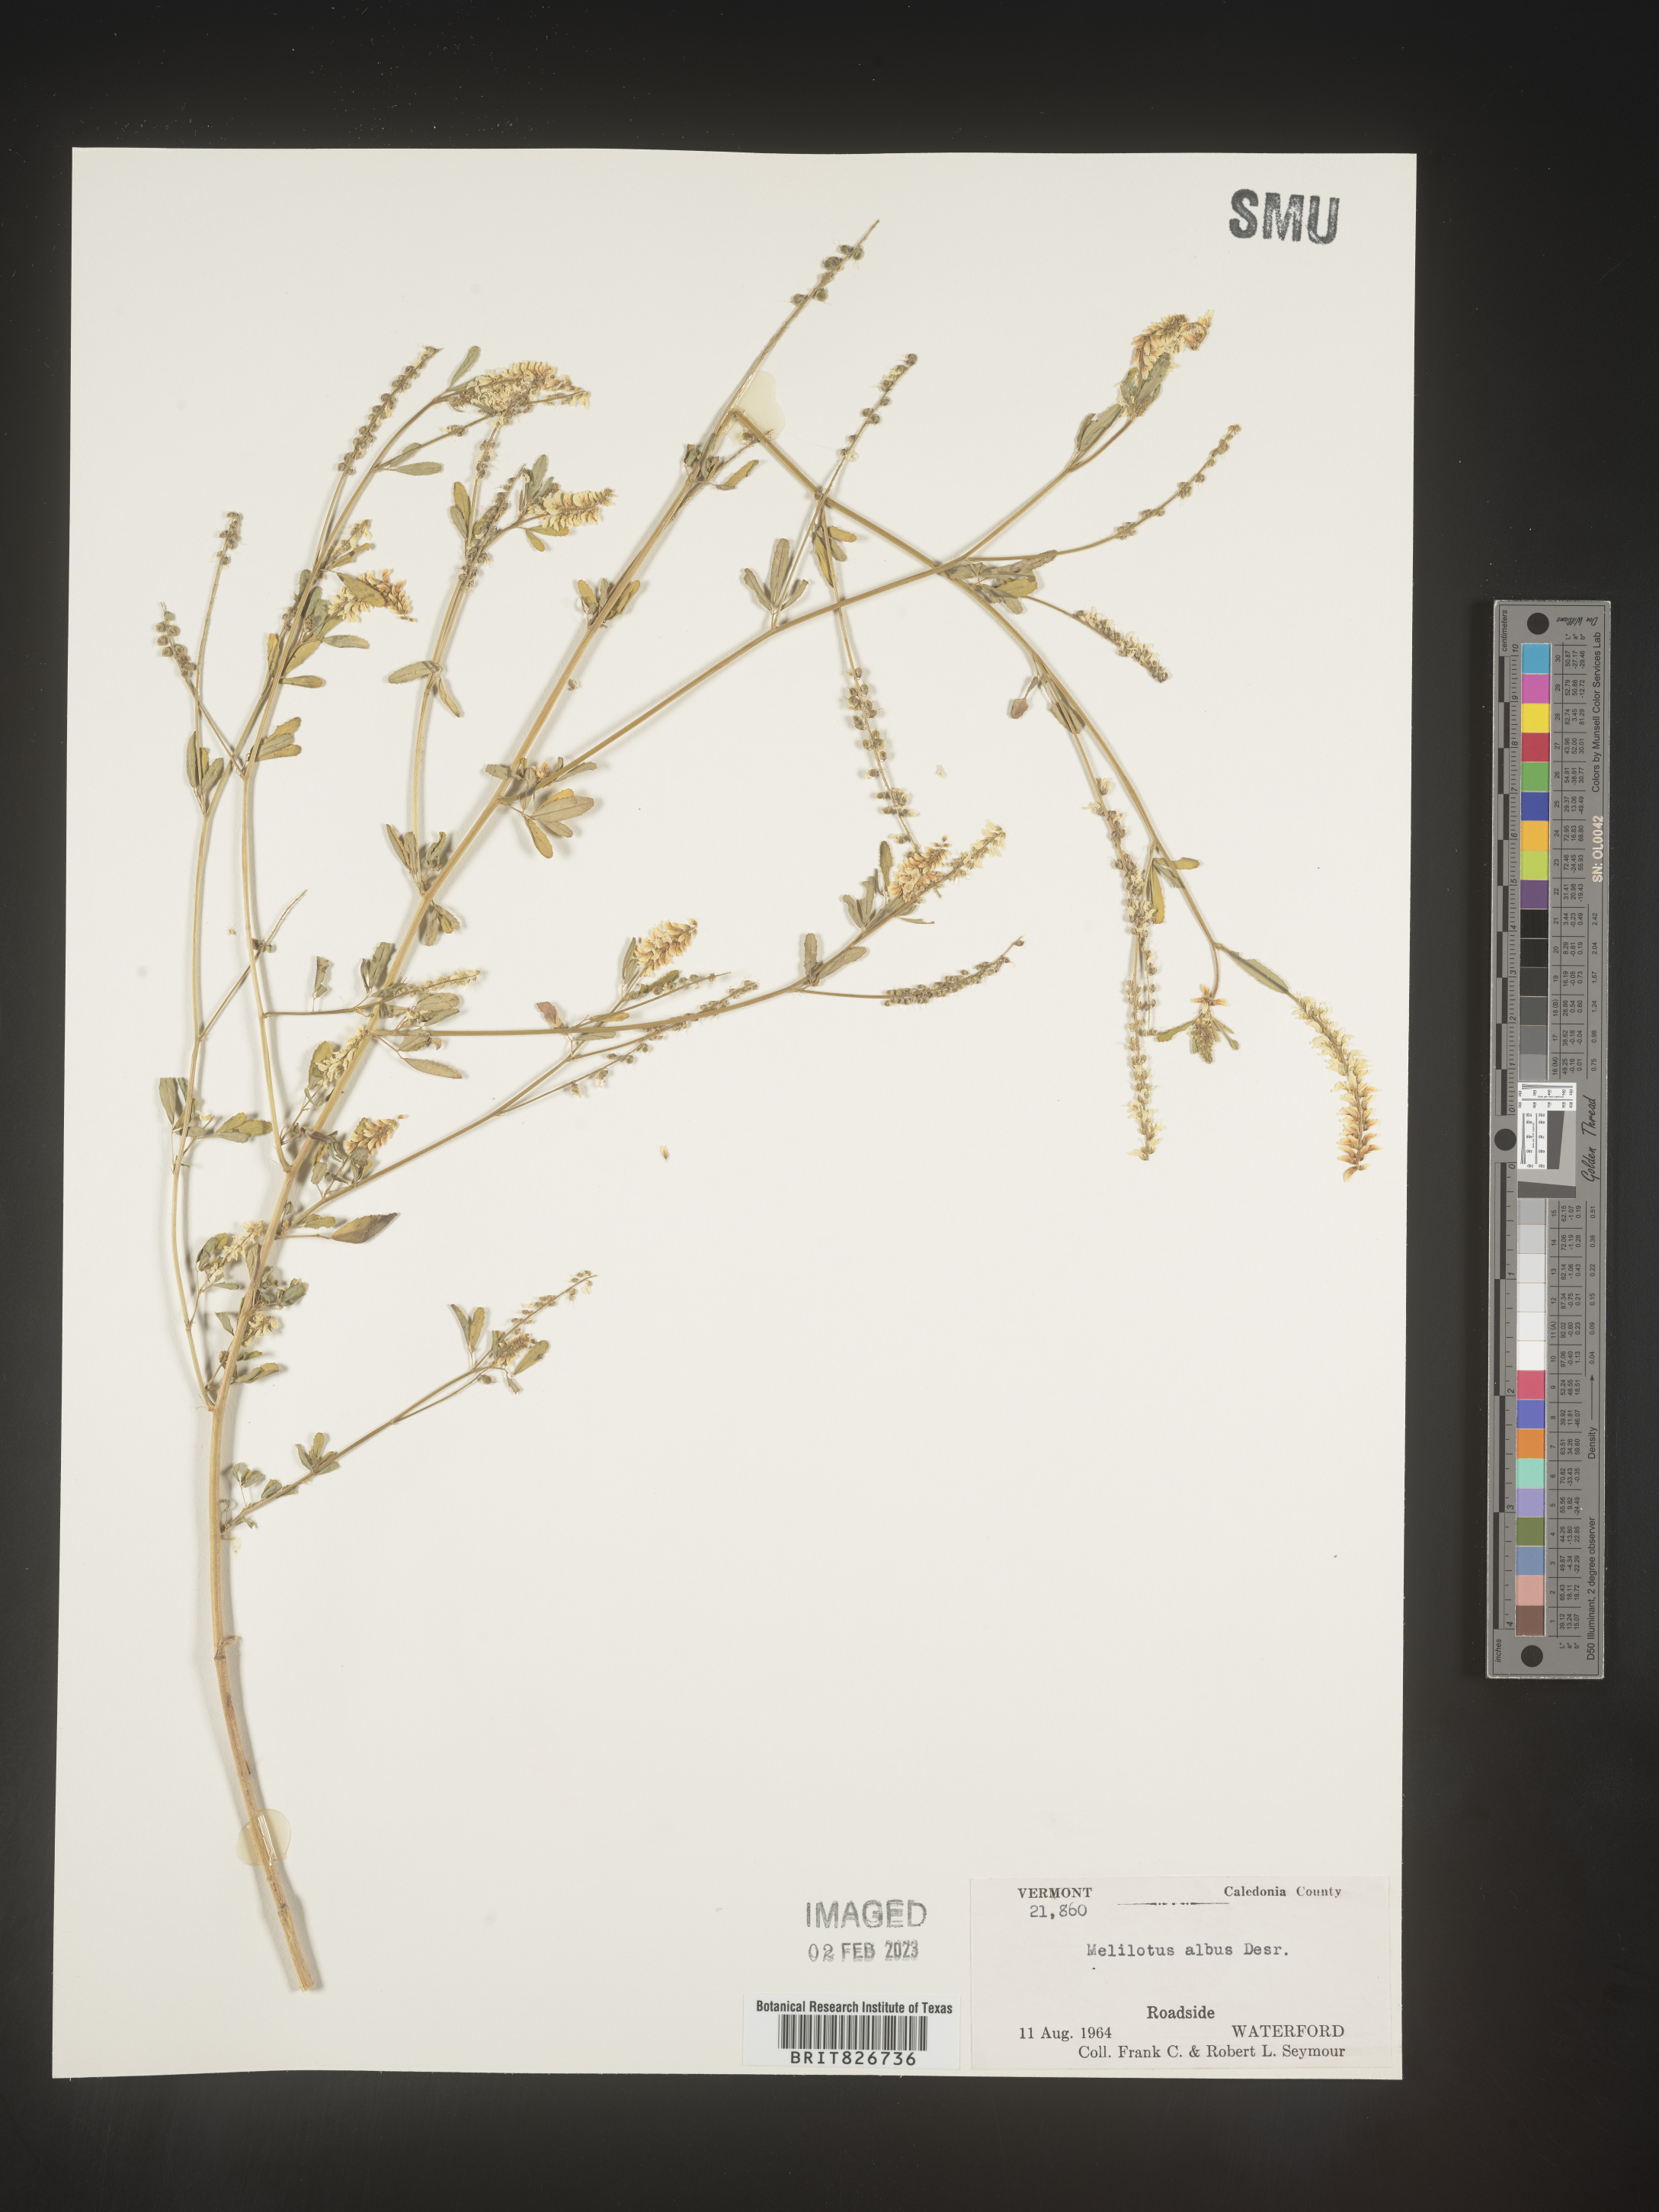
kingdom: Plantae
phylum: Tracheophyta
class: Magnoliopsida
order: Fabales
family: Fabaceae
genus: Melilotus
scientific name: Melilotus albus
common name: White melilot
